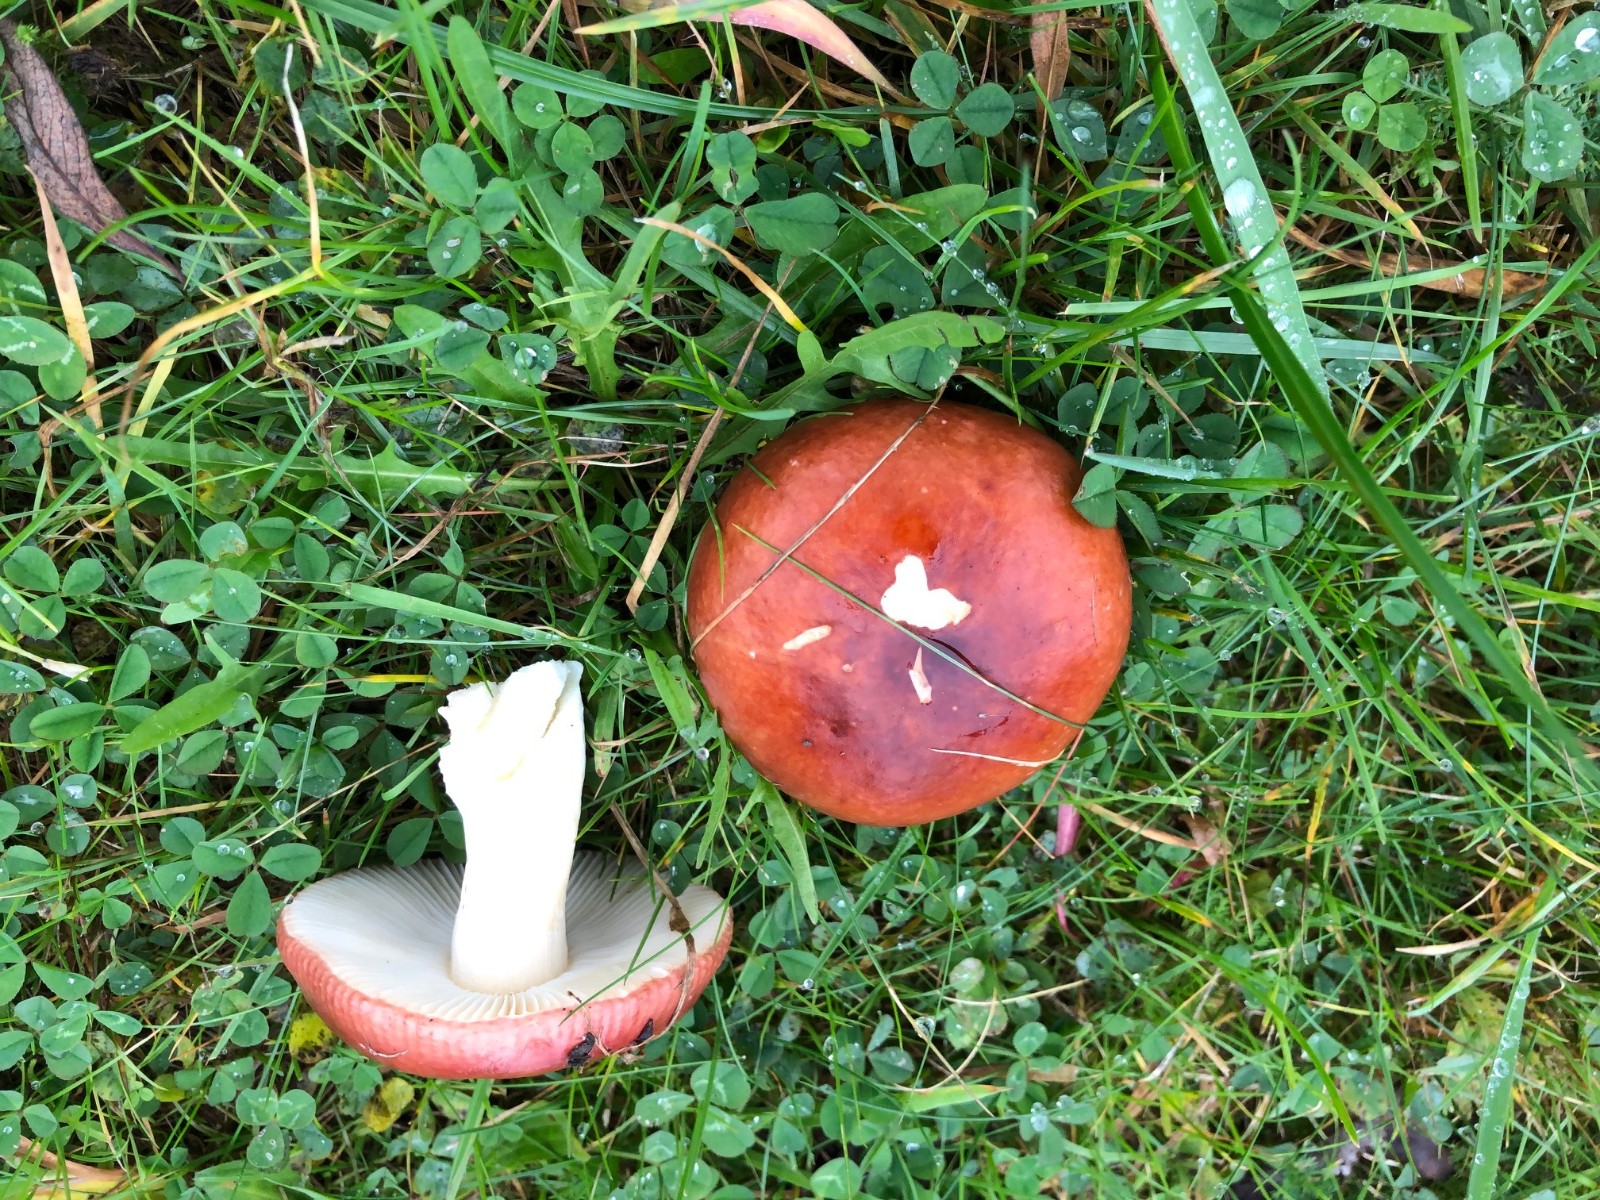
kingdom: Fungi
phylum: Basidiomycota
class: Agaricomycetes
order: Russulales
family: Russulaceae
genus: Russula
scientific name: Russula
